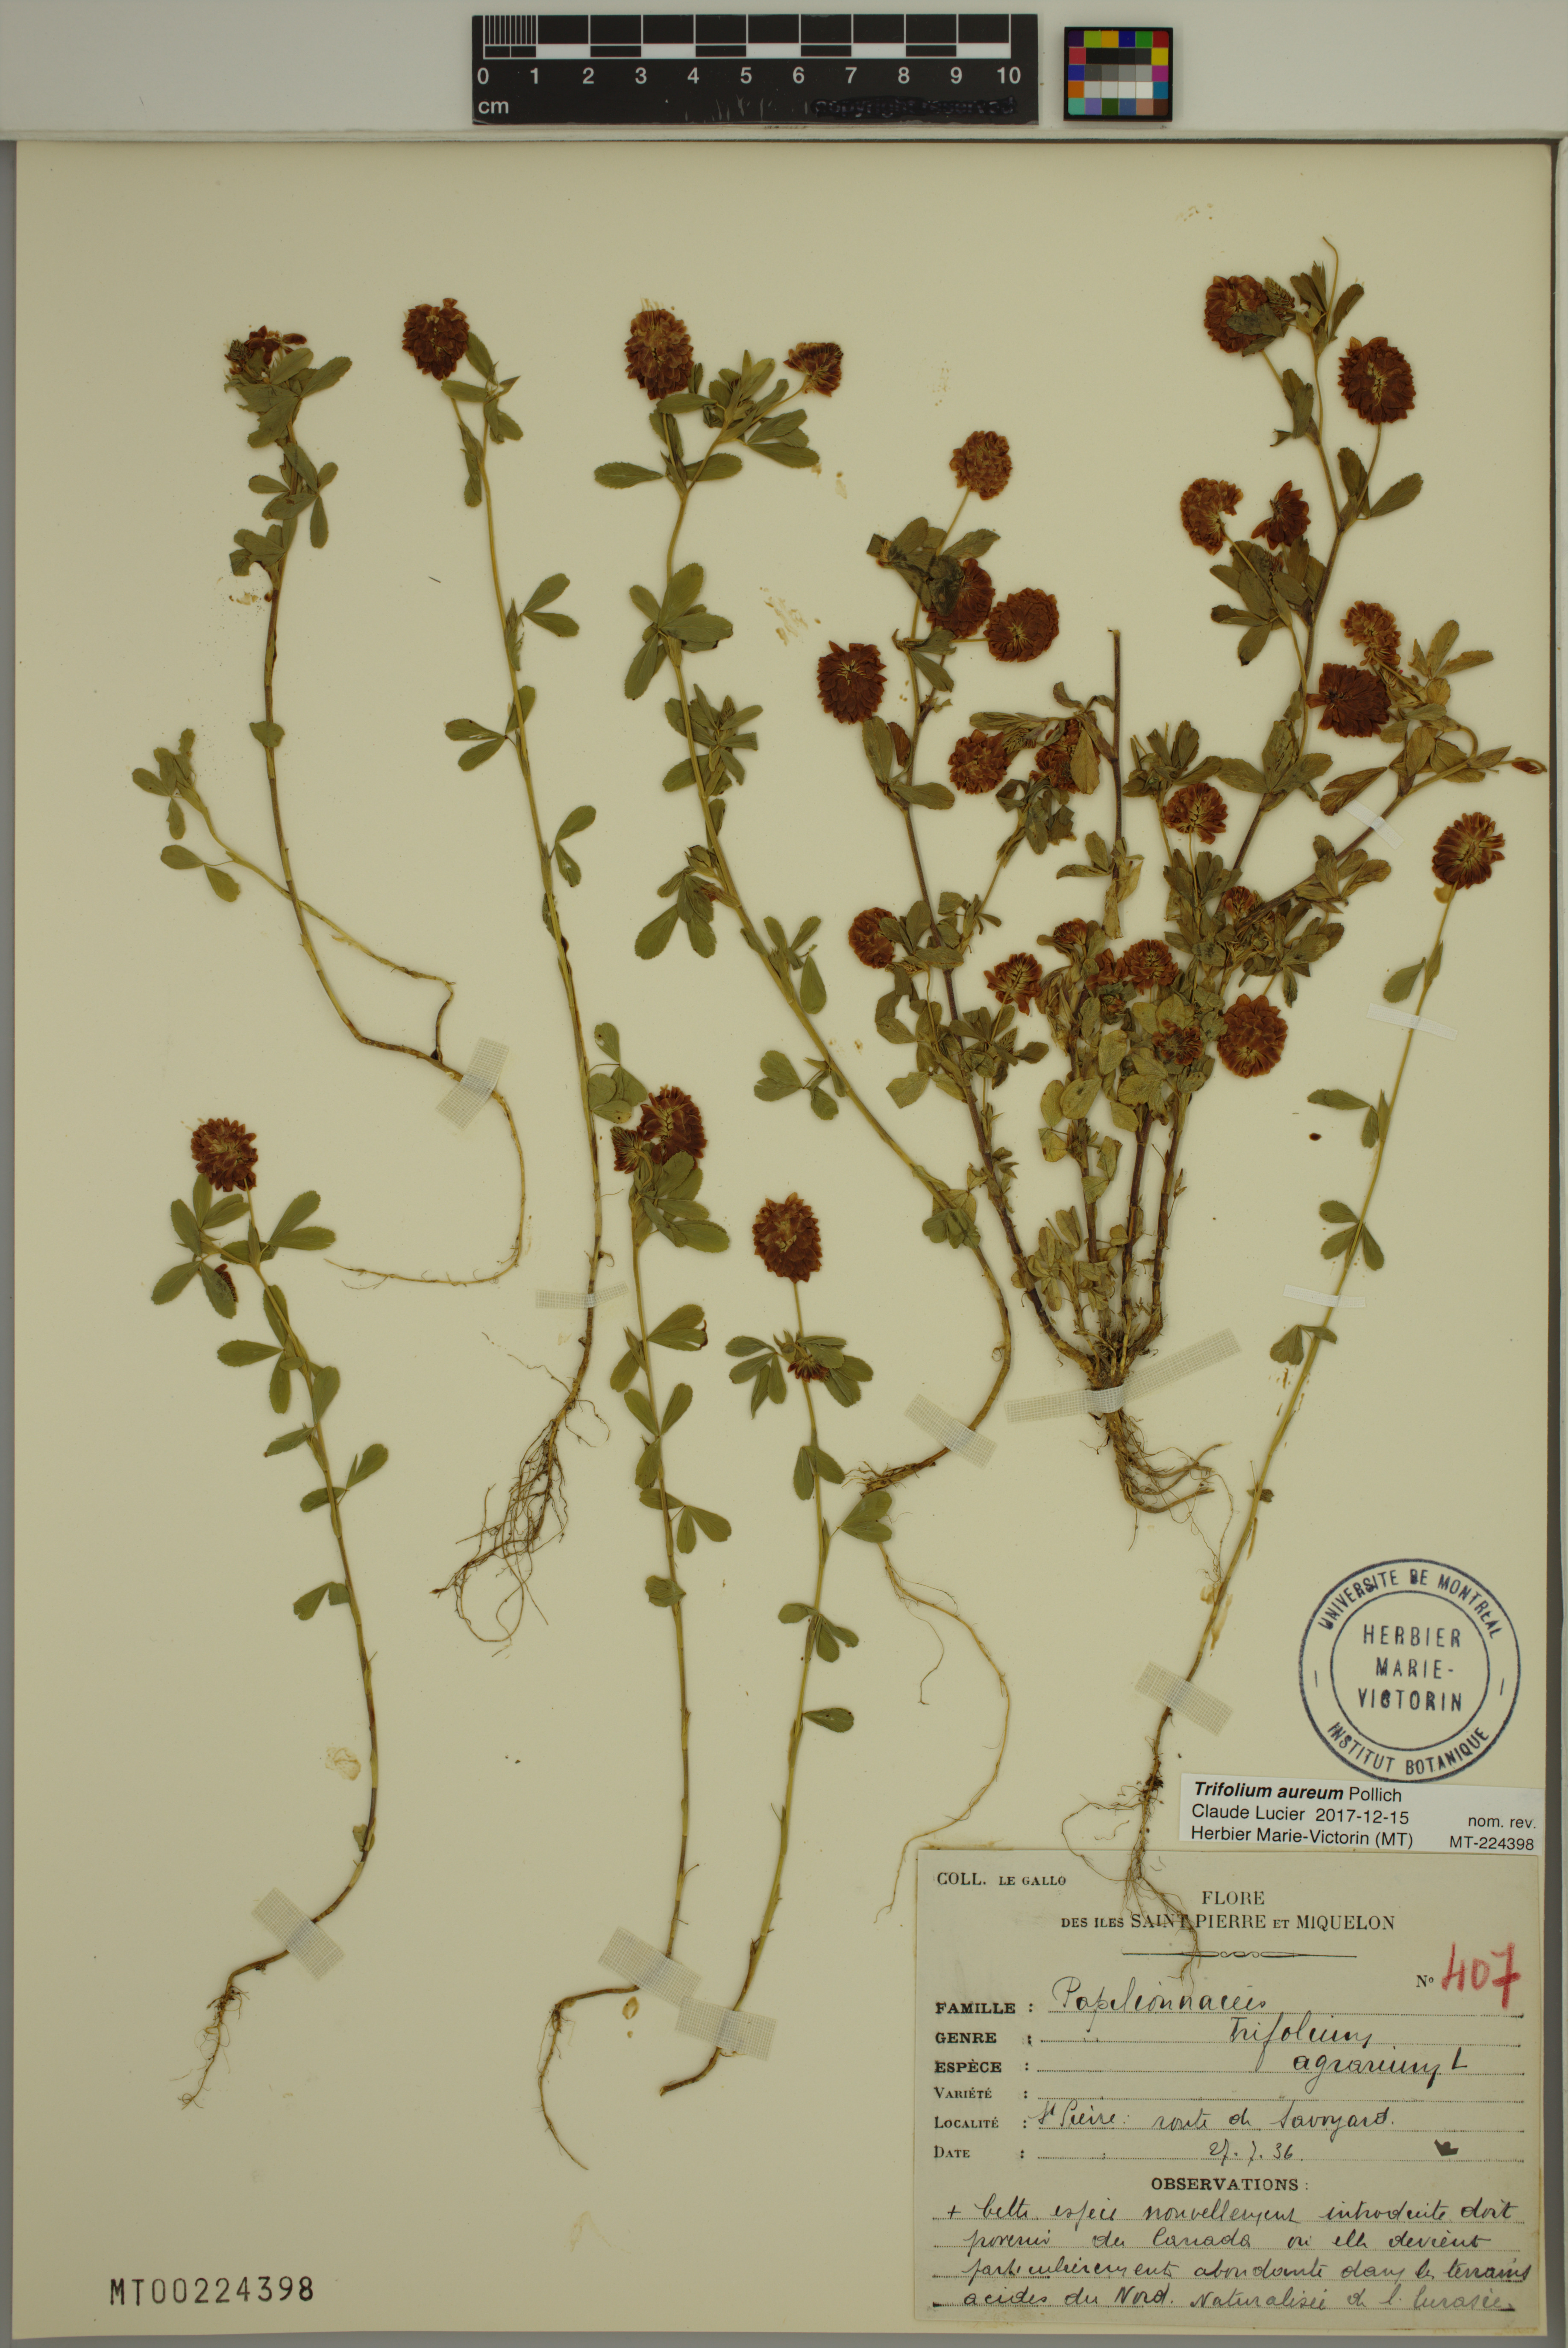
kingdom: Plantae
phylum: Tracheophyta
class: Magnoliopsida
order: Fabales
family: Fabaceae
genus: Trifolium
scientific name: Trifolium aureum
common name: Golden clover
